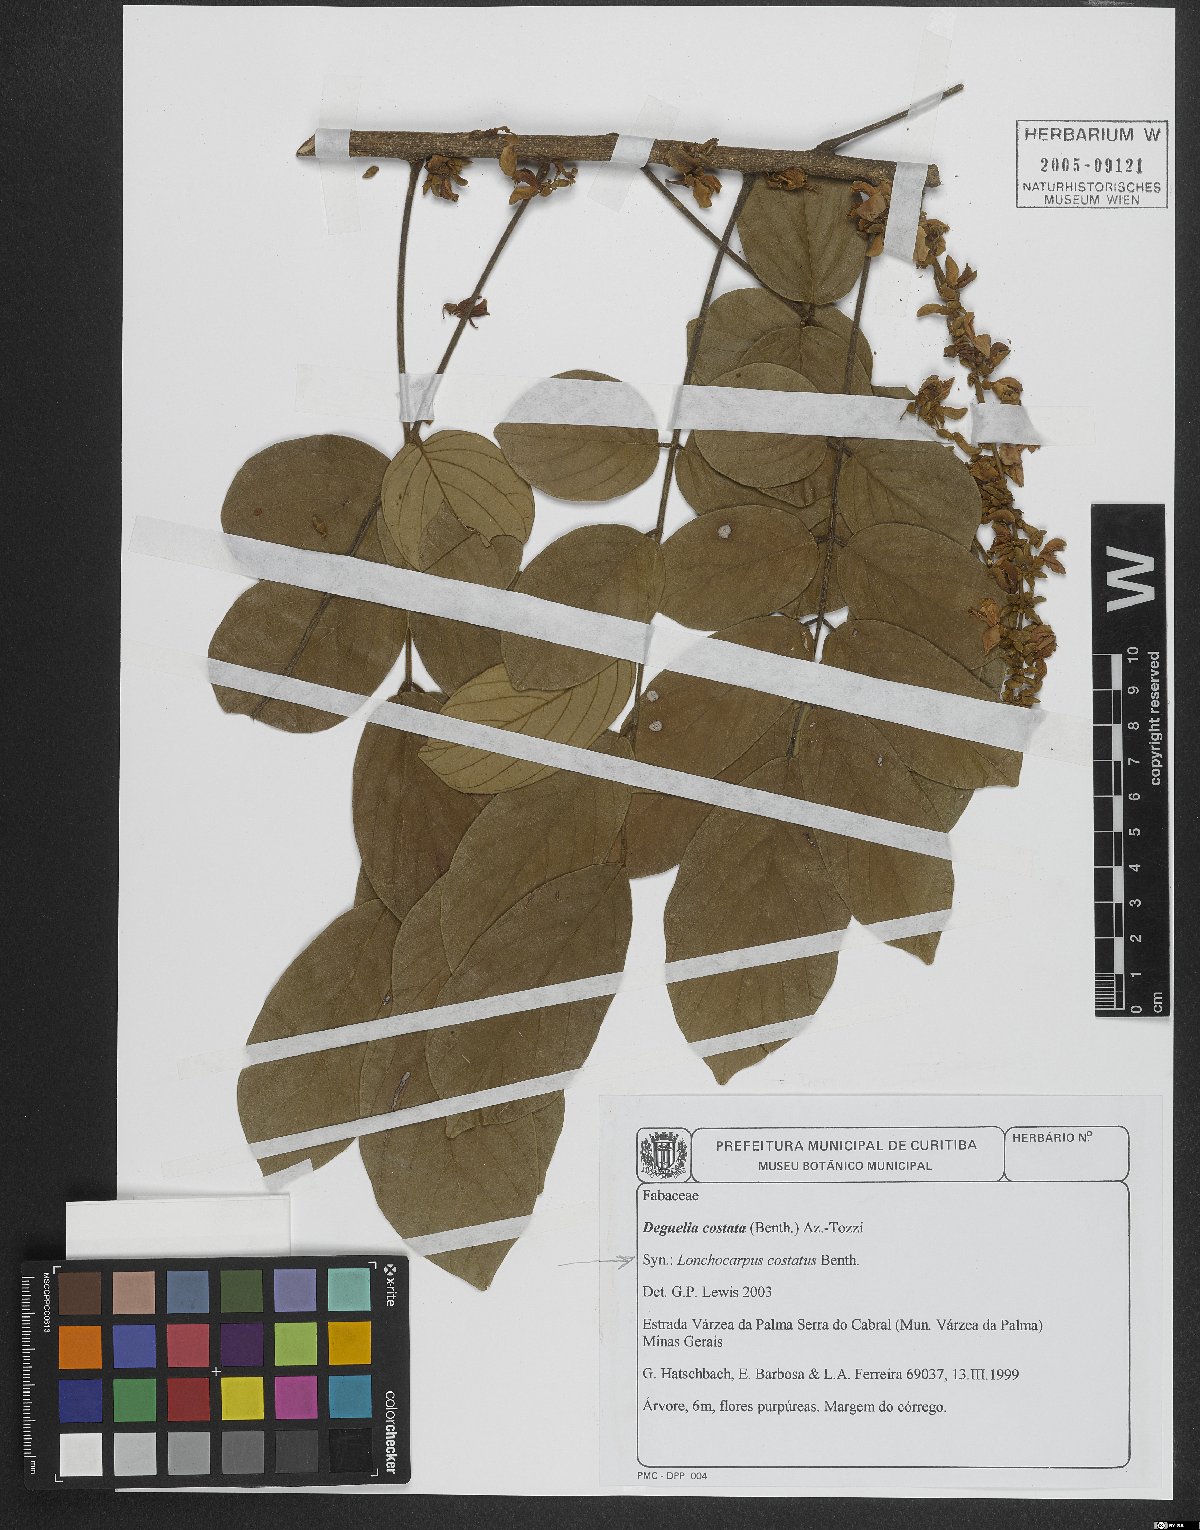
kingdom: Plantae
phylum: Tracheophyta
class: Magnoliopsida
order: Fabales
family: Fabaceae
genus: Deguelia
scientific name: Deguelia costata
